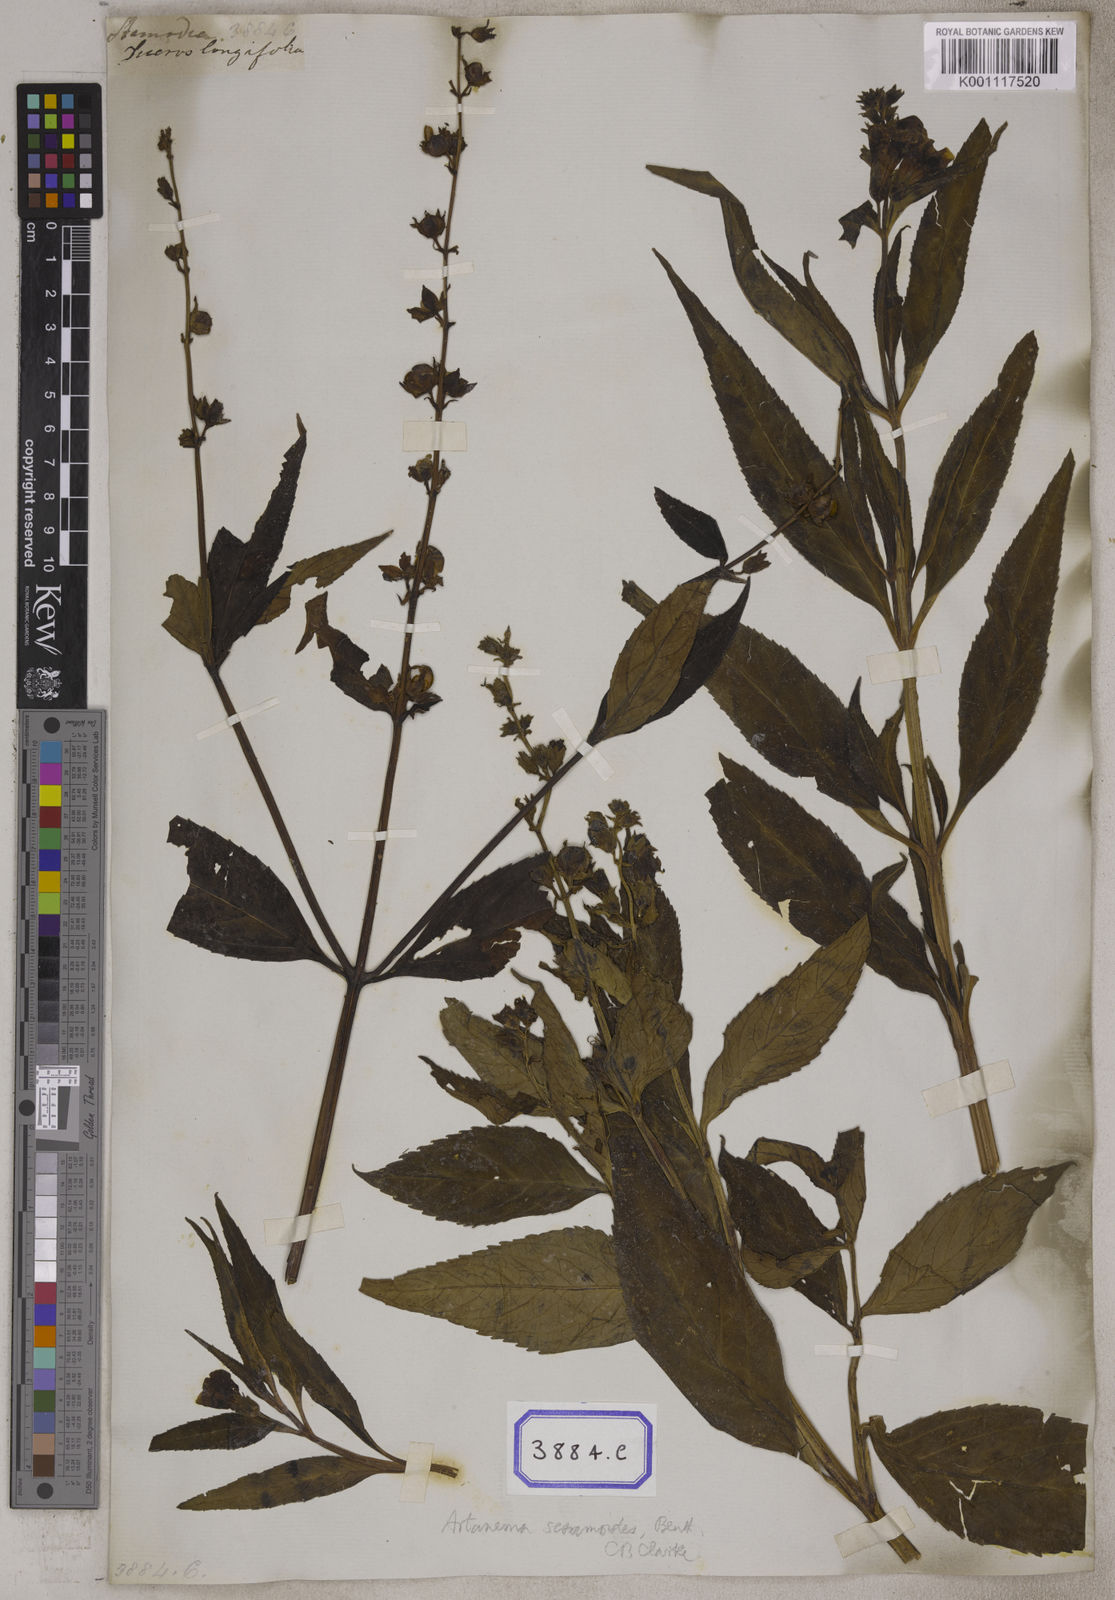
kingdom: Plantae
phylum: Tracheophyta
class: Magnoliopsida
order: Lamiales
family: Linderniaceae
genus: Artanema
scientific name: Artanema longifolium
